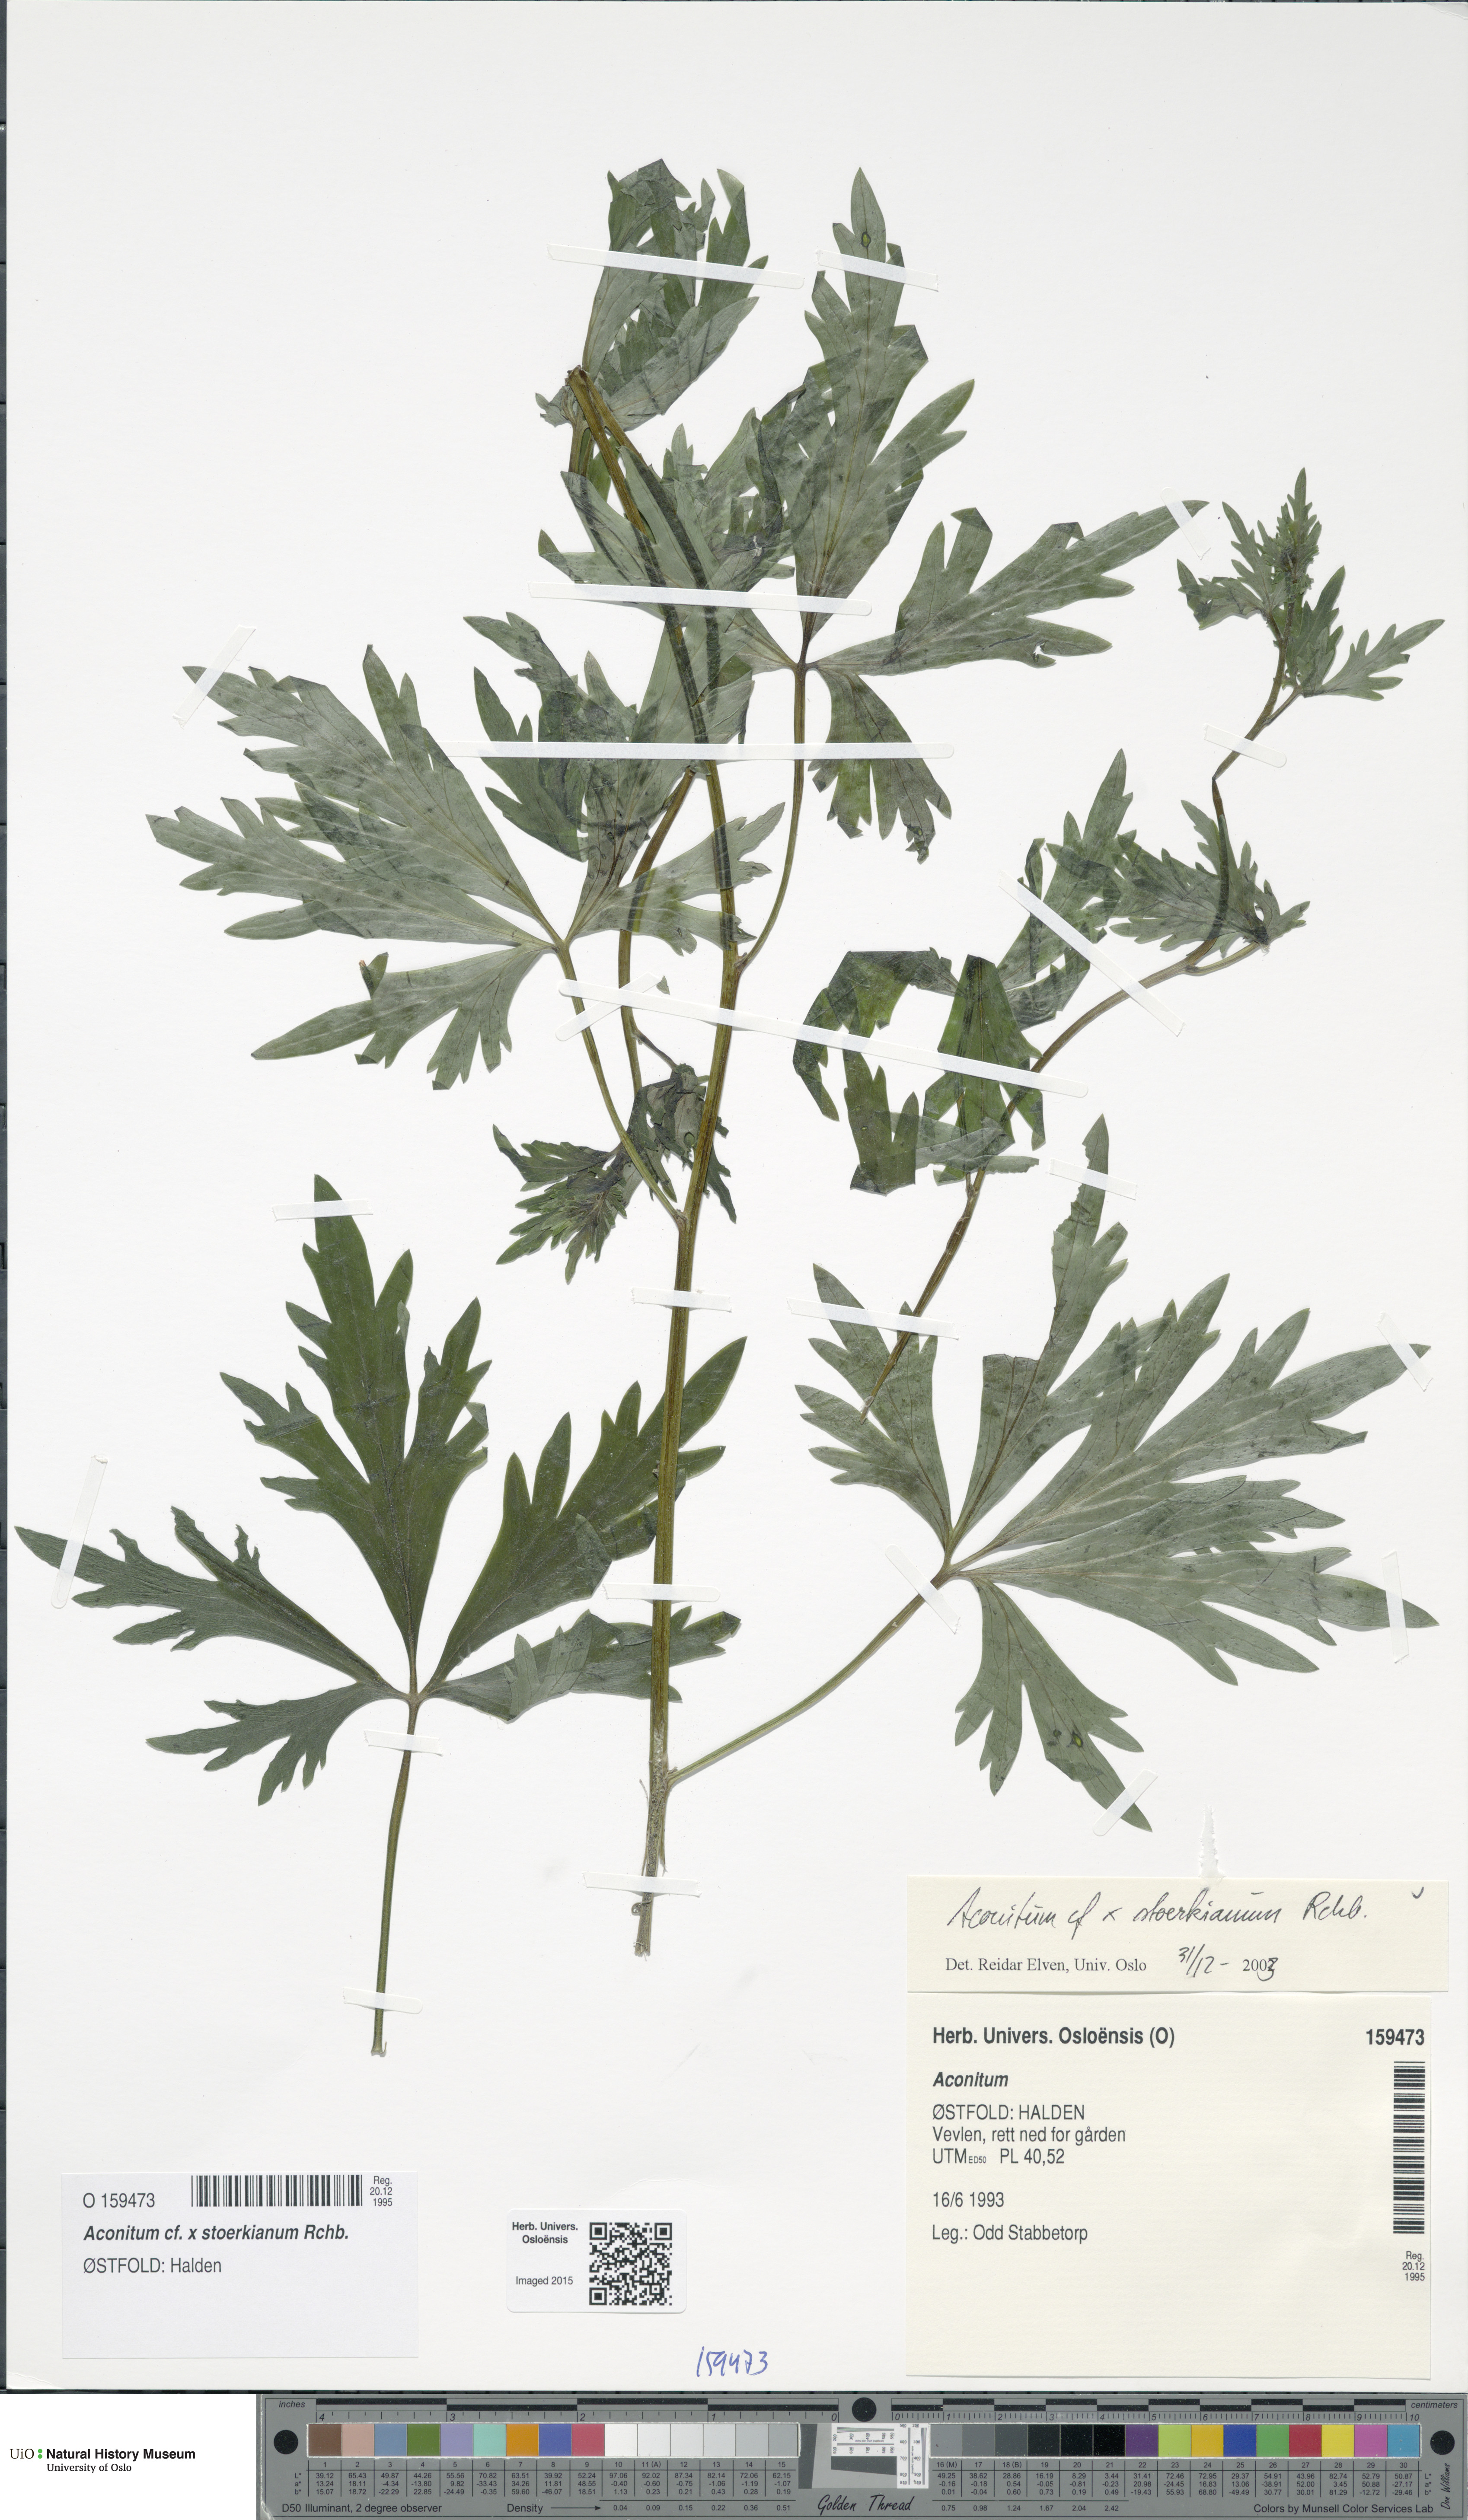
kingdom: Plantae
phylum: Tracheophyta
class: Magnoliopsida
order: Ranunculales
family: Ranunculaceae
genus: Aconitum
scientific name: Aconitum cammarum
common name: Hybrid monk's-hood
